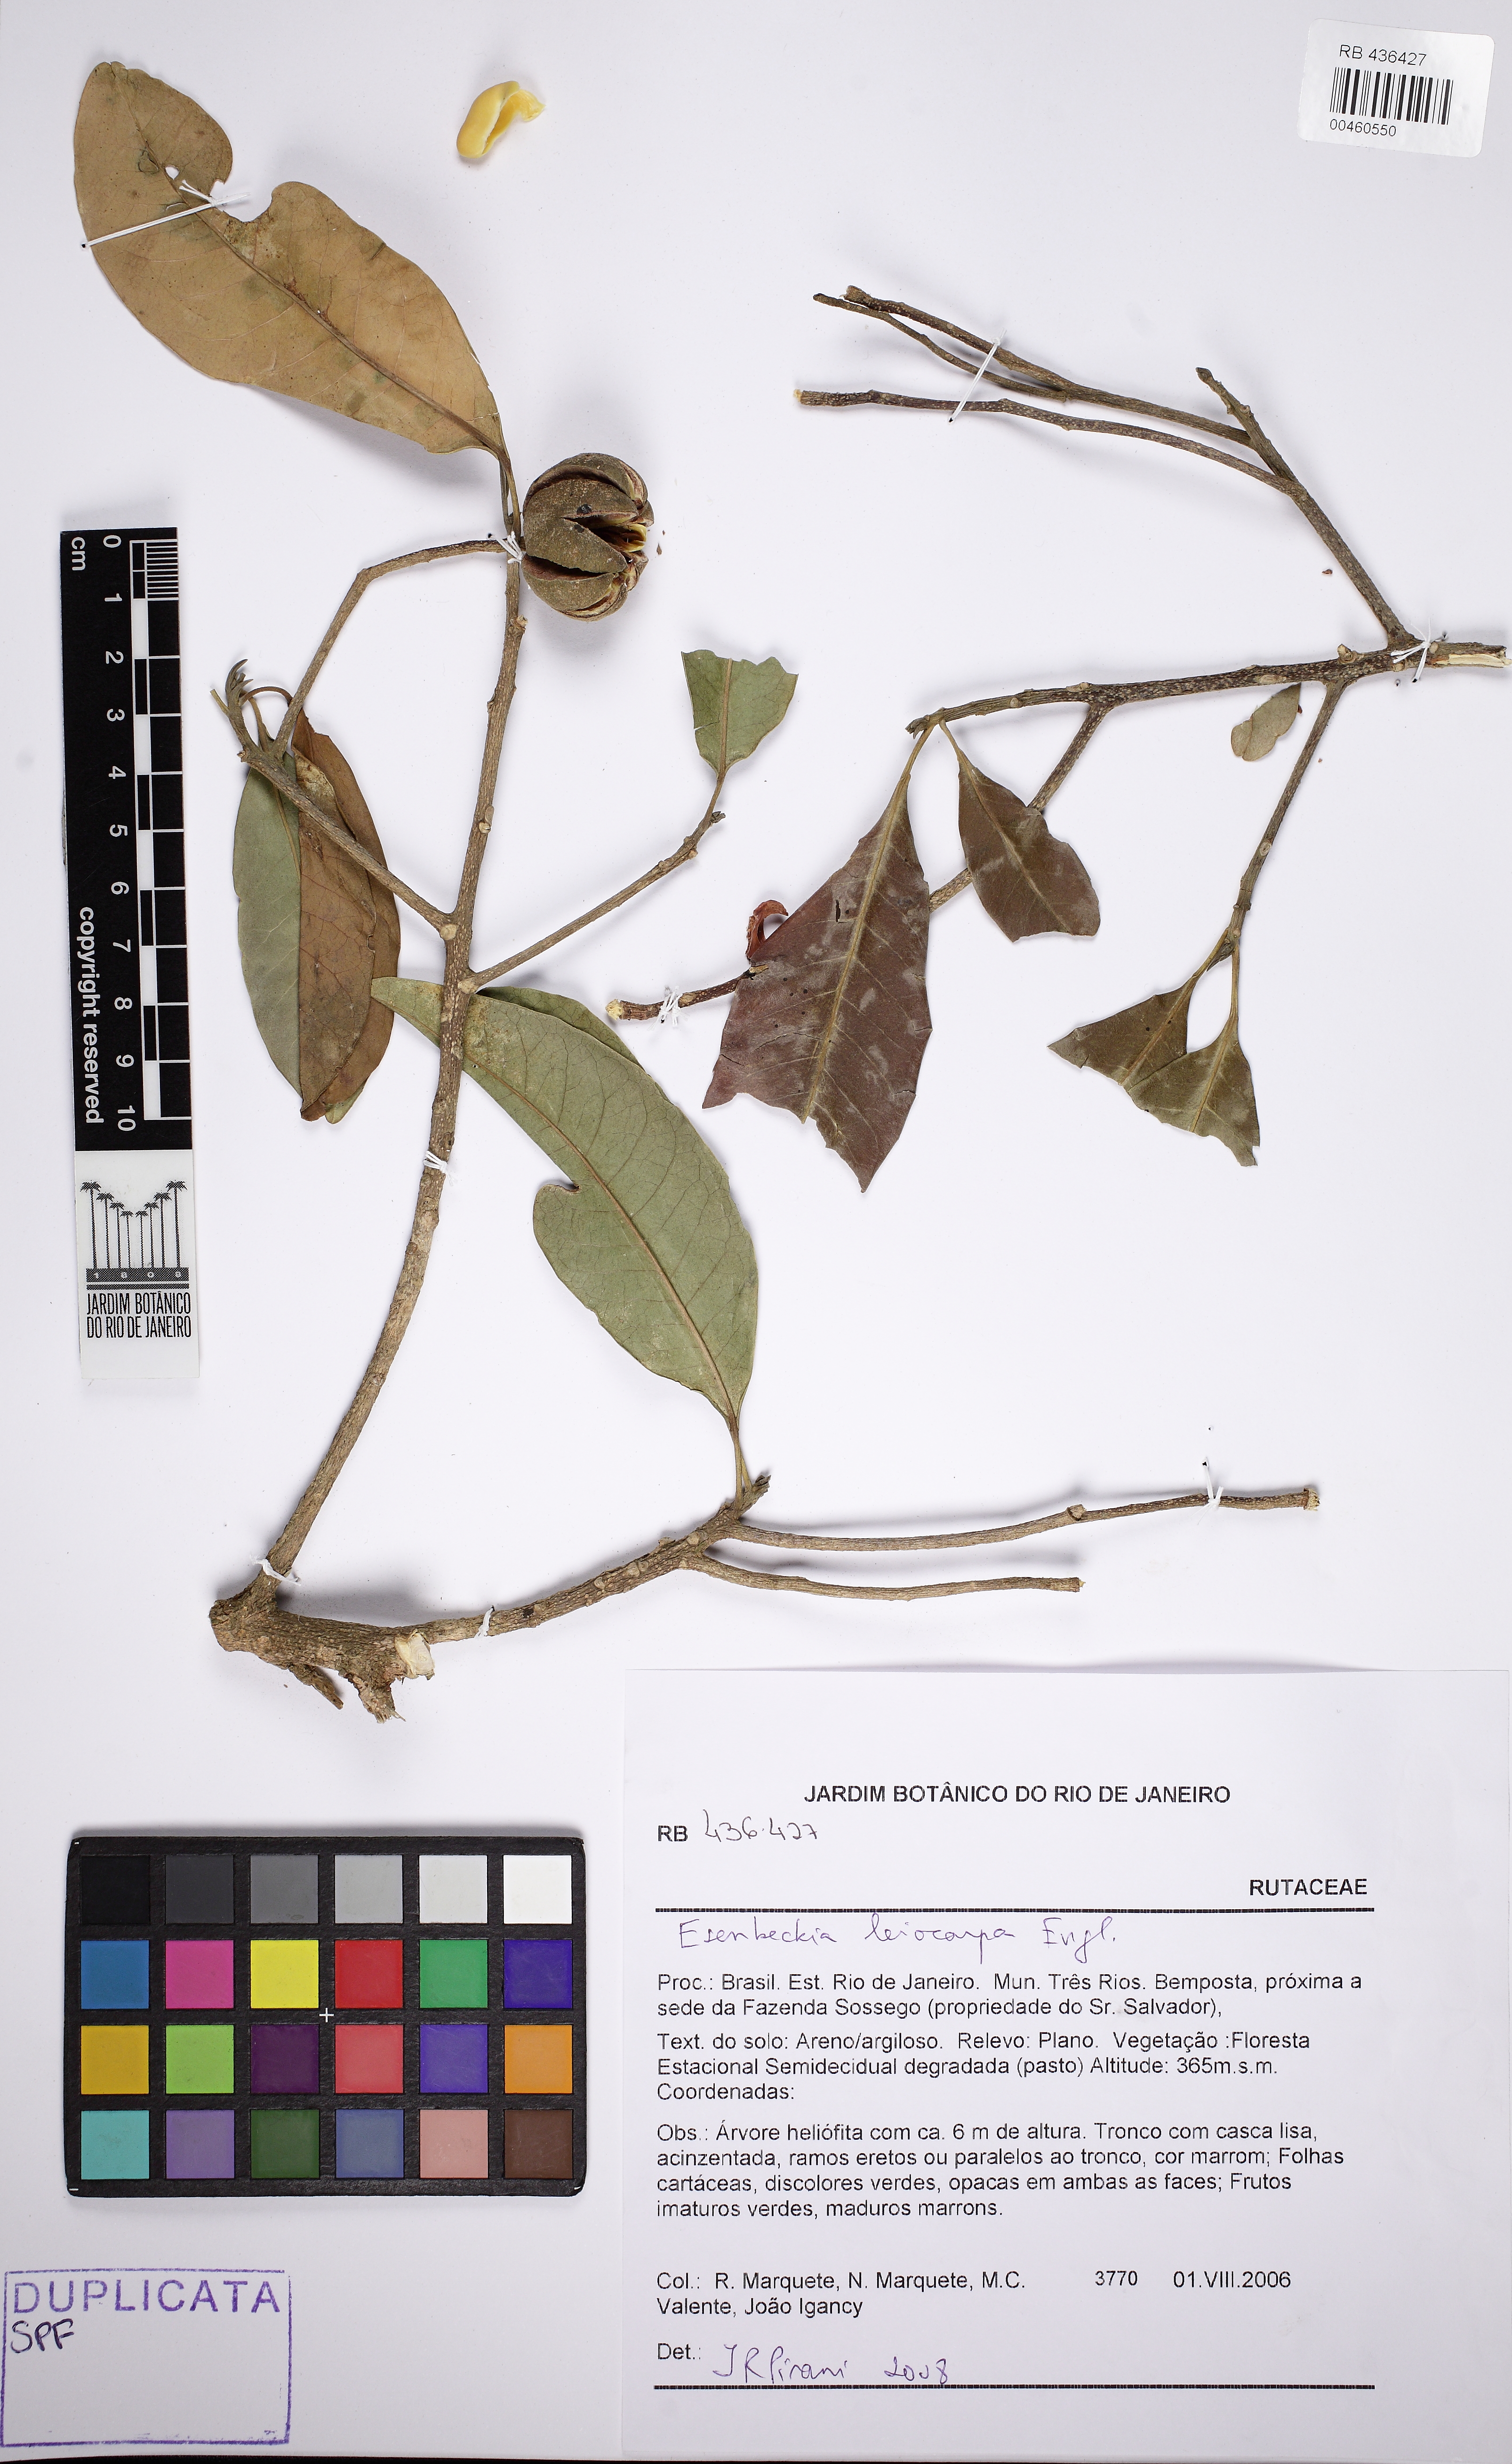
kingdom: Plantae
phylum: Tracheophyta
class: Magnoliopsida
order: Sapindales
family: Rutaceae
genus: Esenbeckia
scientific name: Esenbeckia leiocarpa
